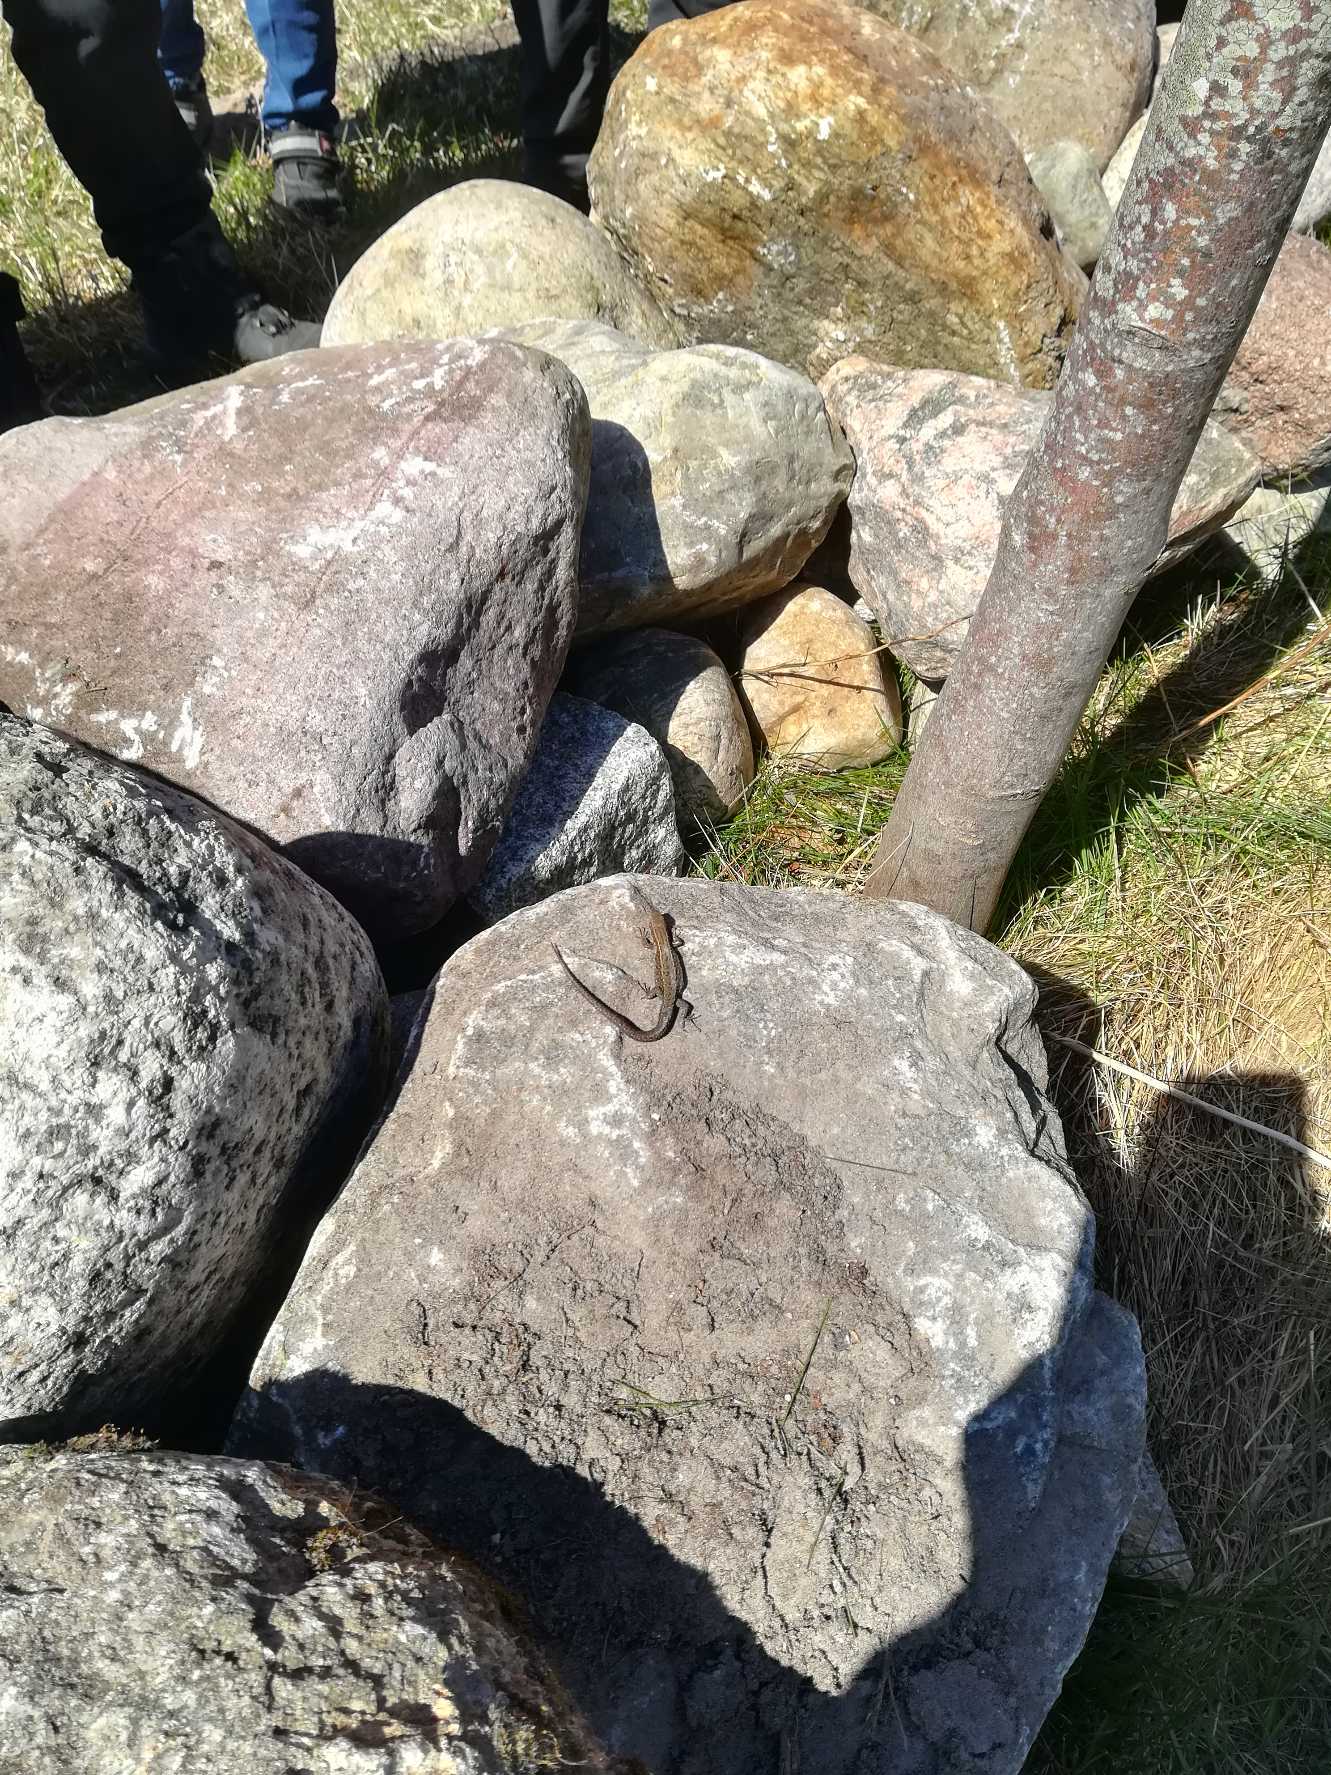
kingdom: Animalia
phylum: Chordata
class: Squamata
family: Lacertidae
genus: Zootoca
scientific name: Zootoca vivipara
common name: Skovfirben
